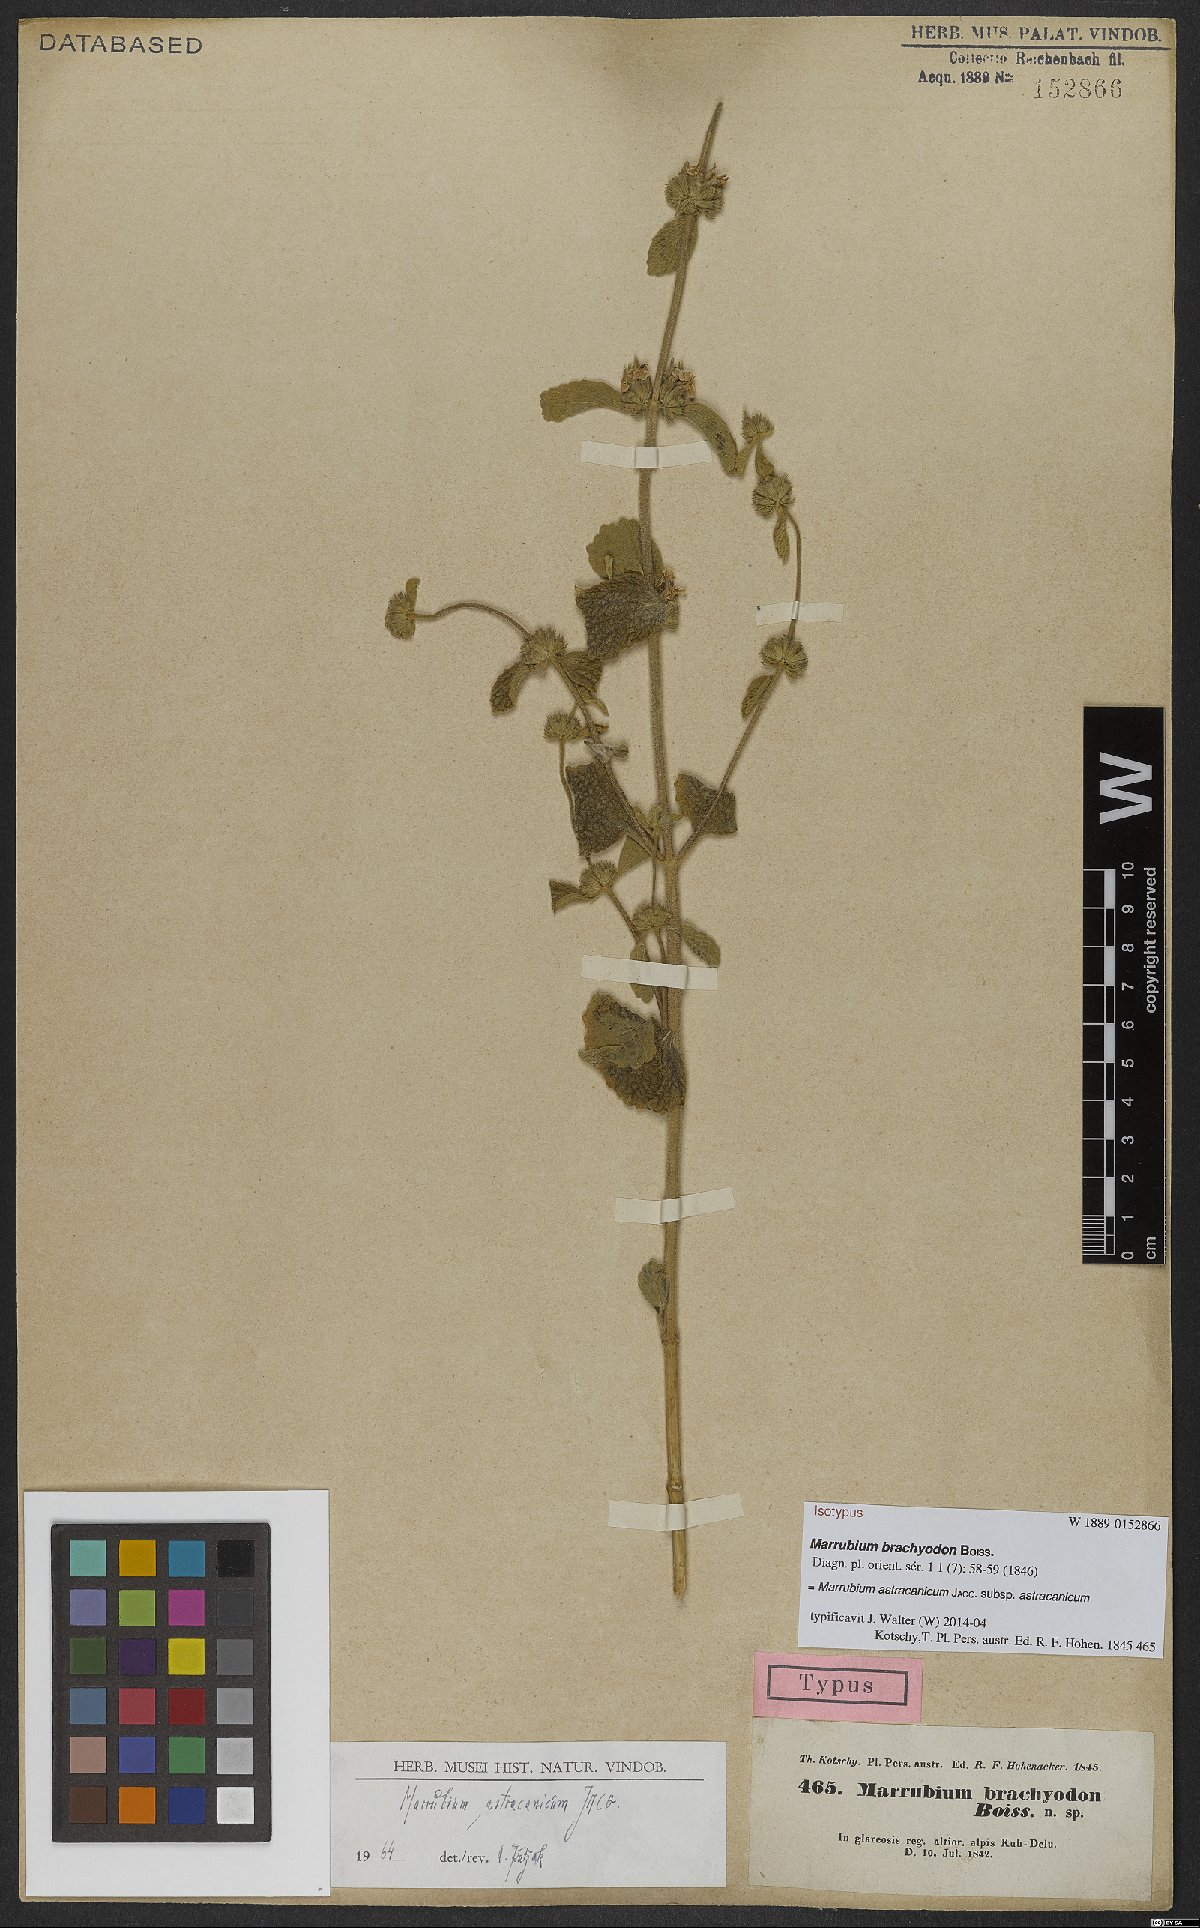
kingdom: Plantae
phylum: Tracheophyta
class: Magnoliopsida
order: Lamiales
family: Lamiaceae
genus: Marrubium
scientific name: Marrubium astracanicum
